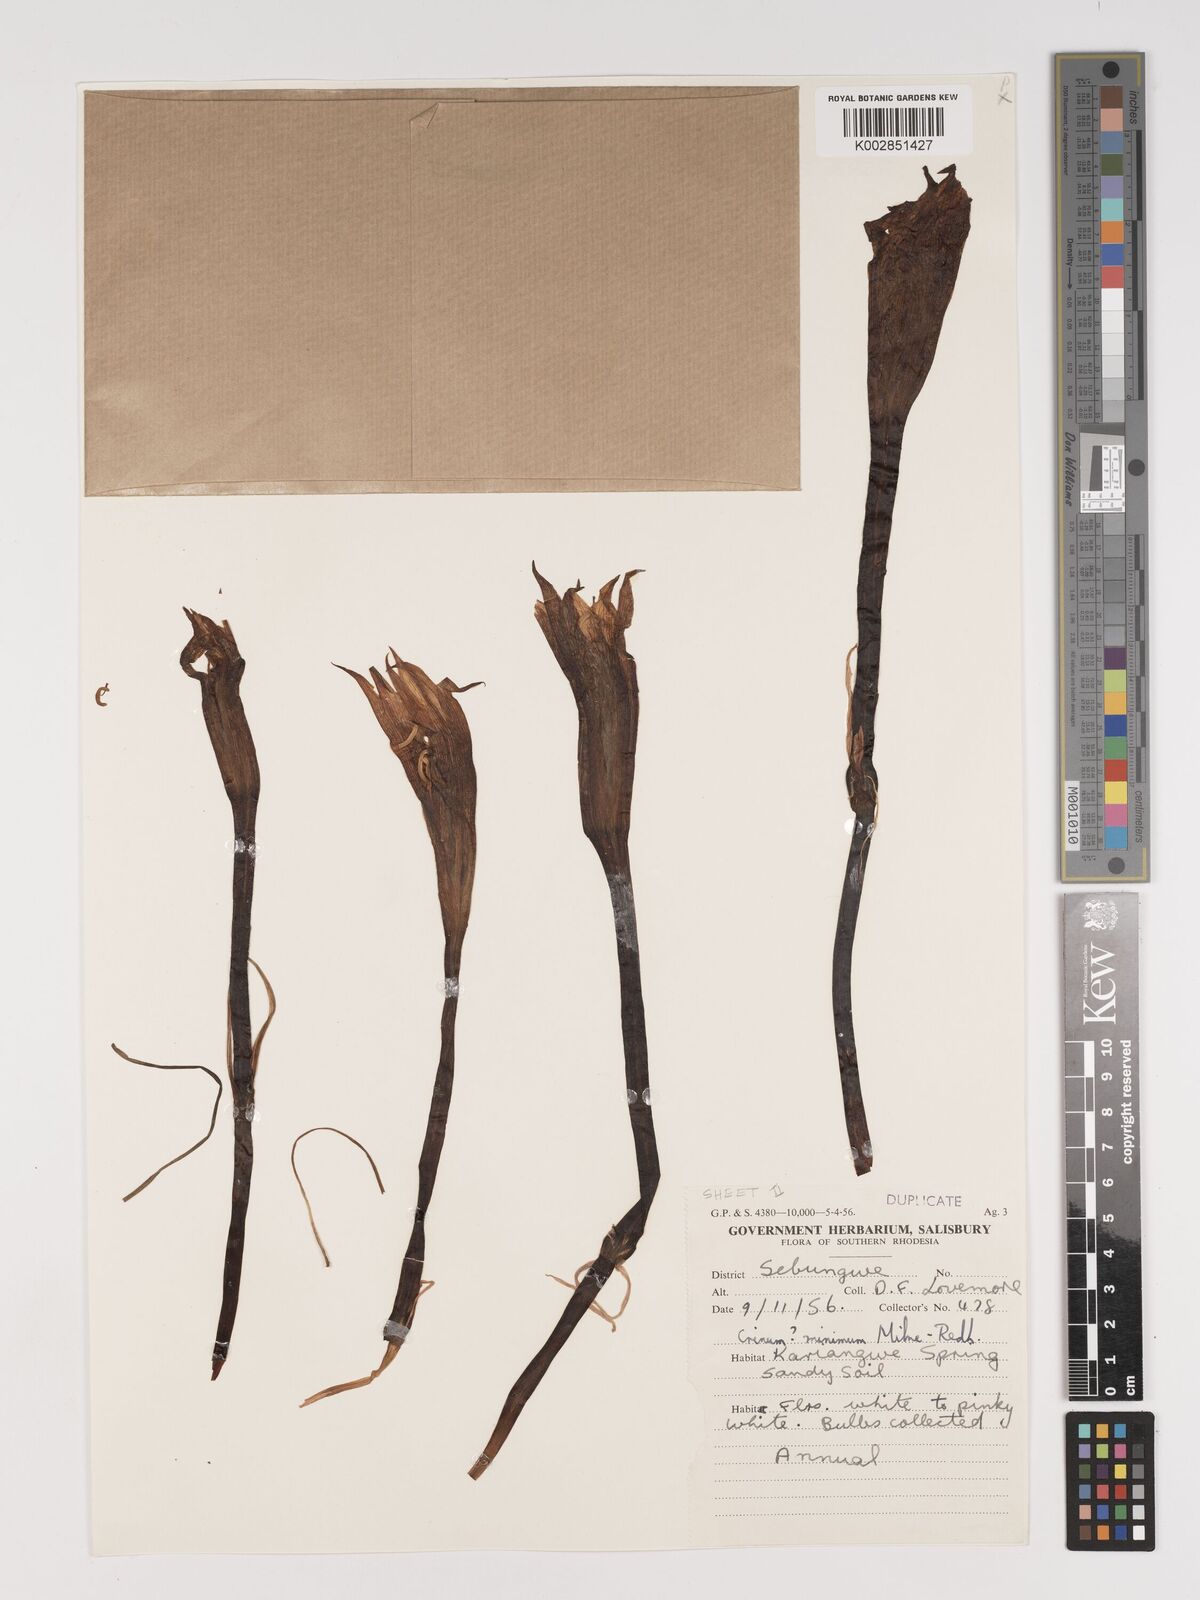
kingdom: Plantae
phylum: Tracheophyta
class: Liliopsida
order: Asparagales
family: Amaryllidaceae
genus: Crinum
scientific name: Crinum walteri
